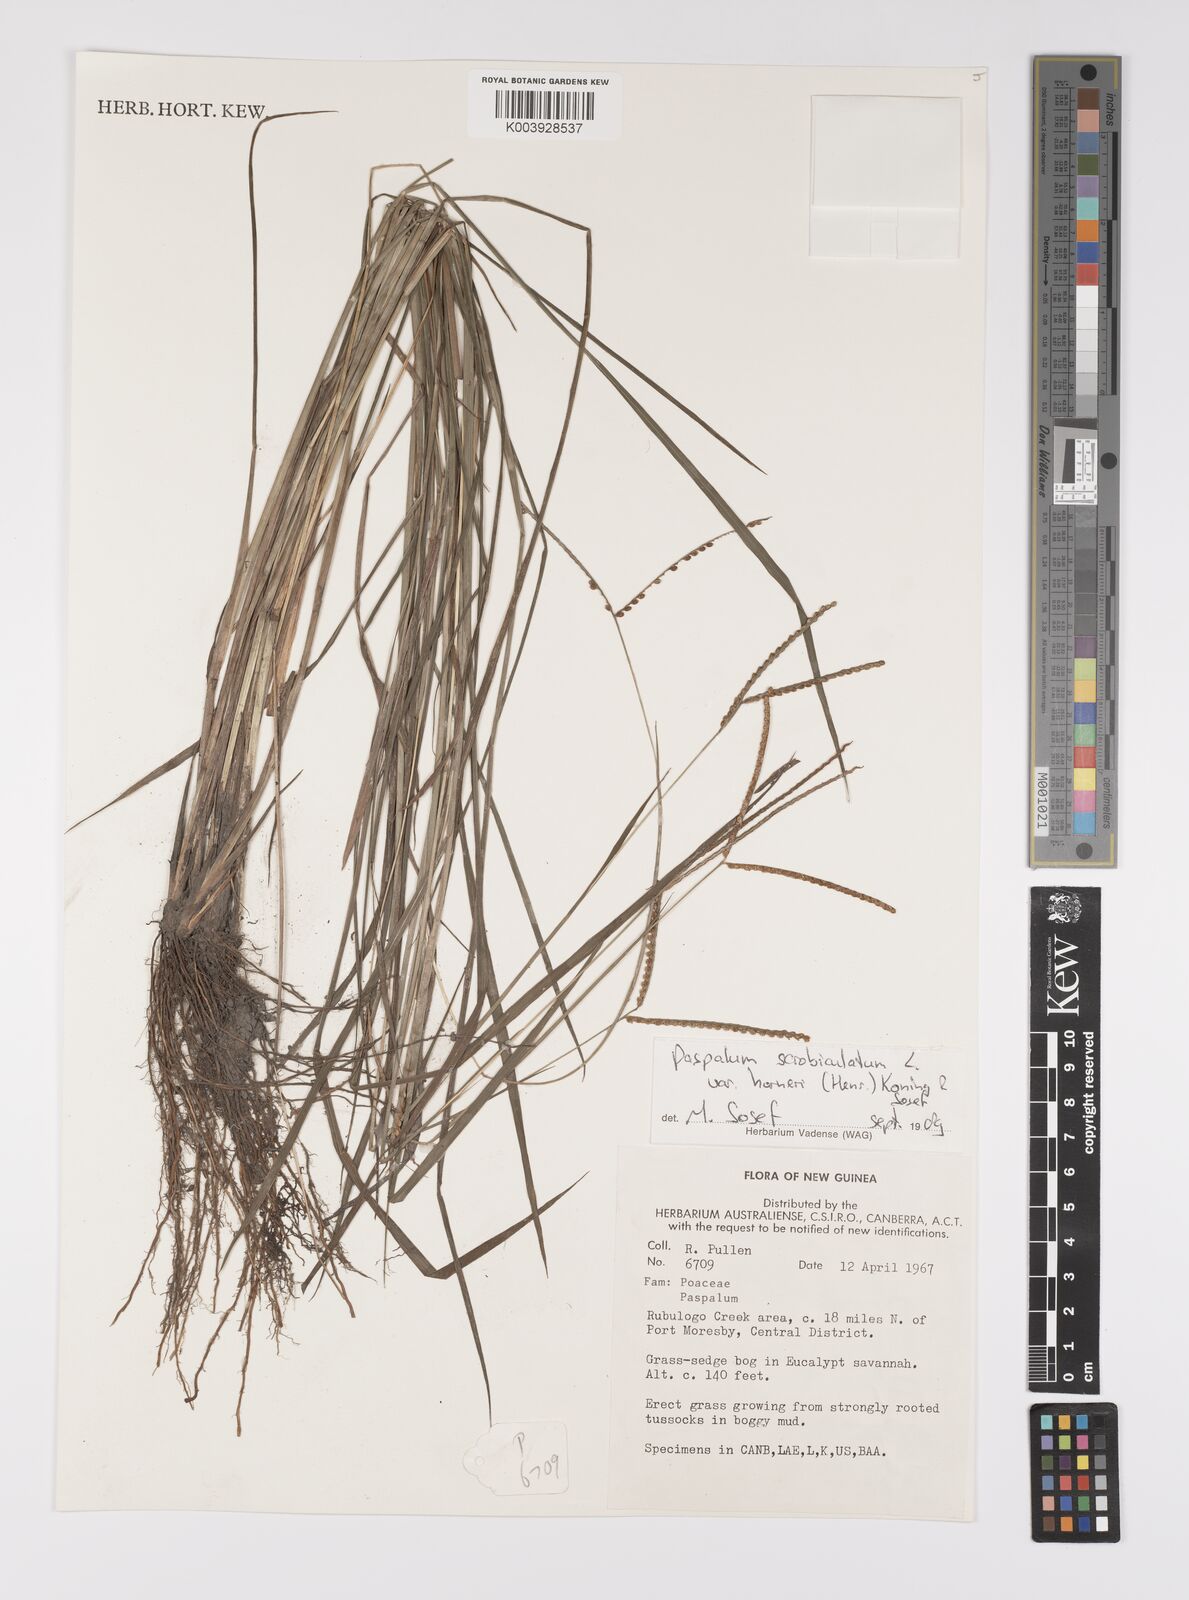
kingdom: Plantae
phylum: Tracheophyta
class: Liliopsida
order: Poales
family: Poaceae
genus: Paspalum
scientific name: Paspalum scrobiculatum
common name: Kodo millet
